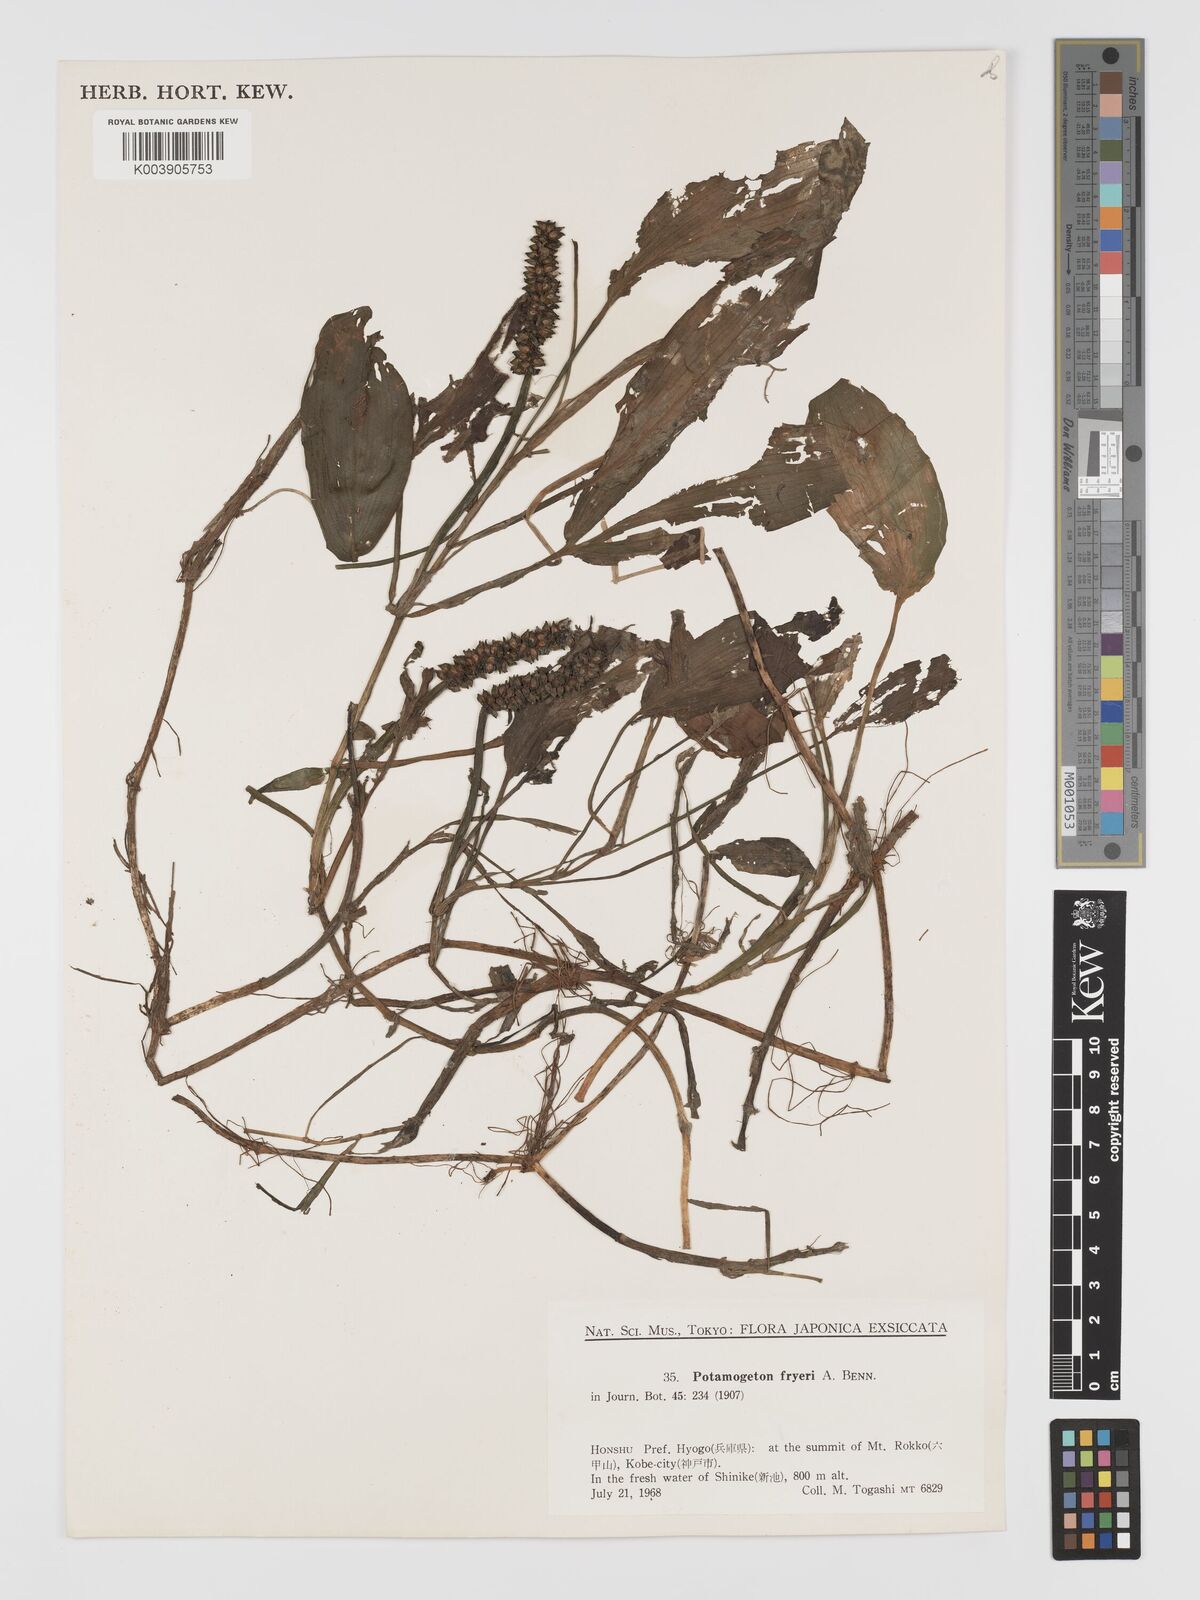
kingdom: Plantae
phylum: Tracheophyta
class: Liliopsida
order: Alismatales
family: Potamogetonaceae
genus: Potamogeton
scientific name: Potamogeton fryeri
